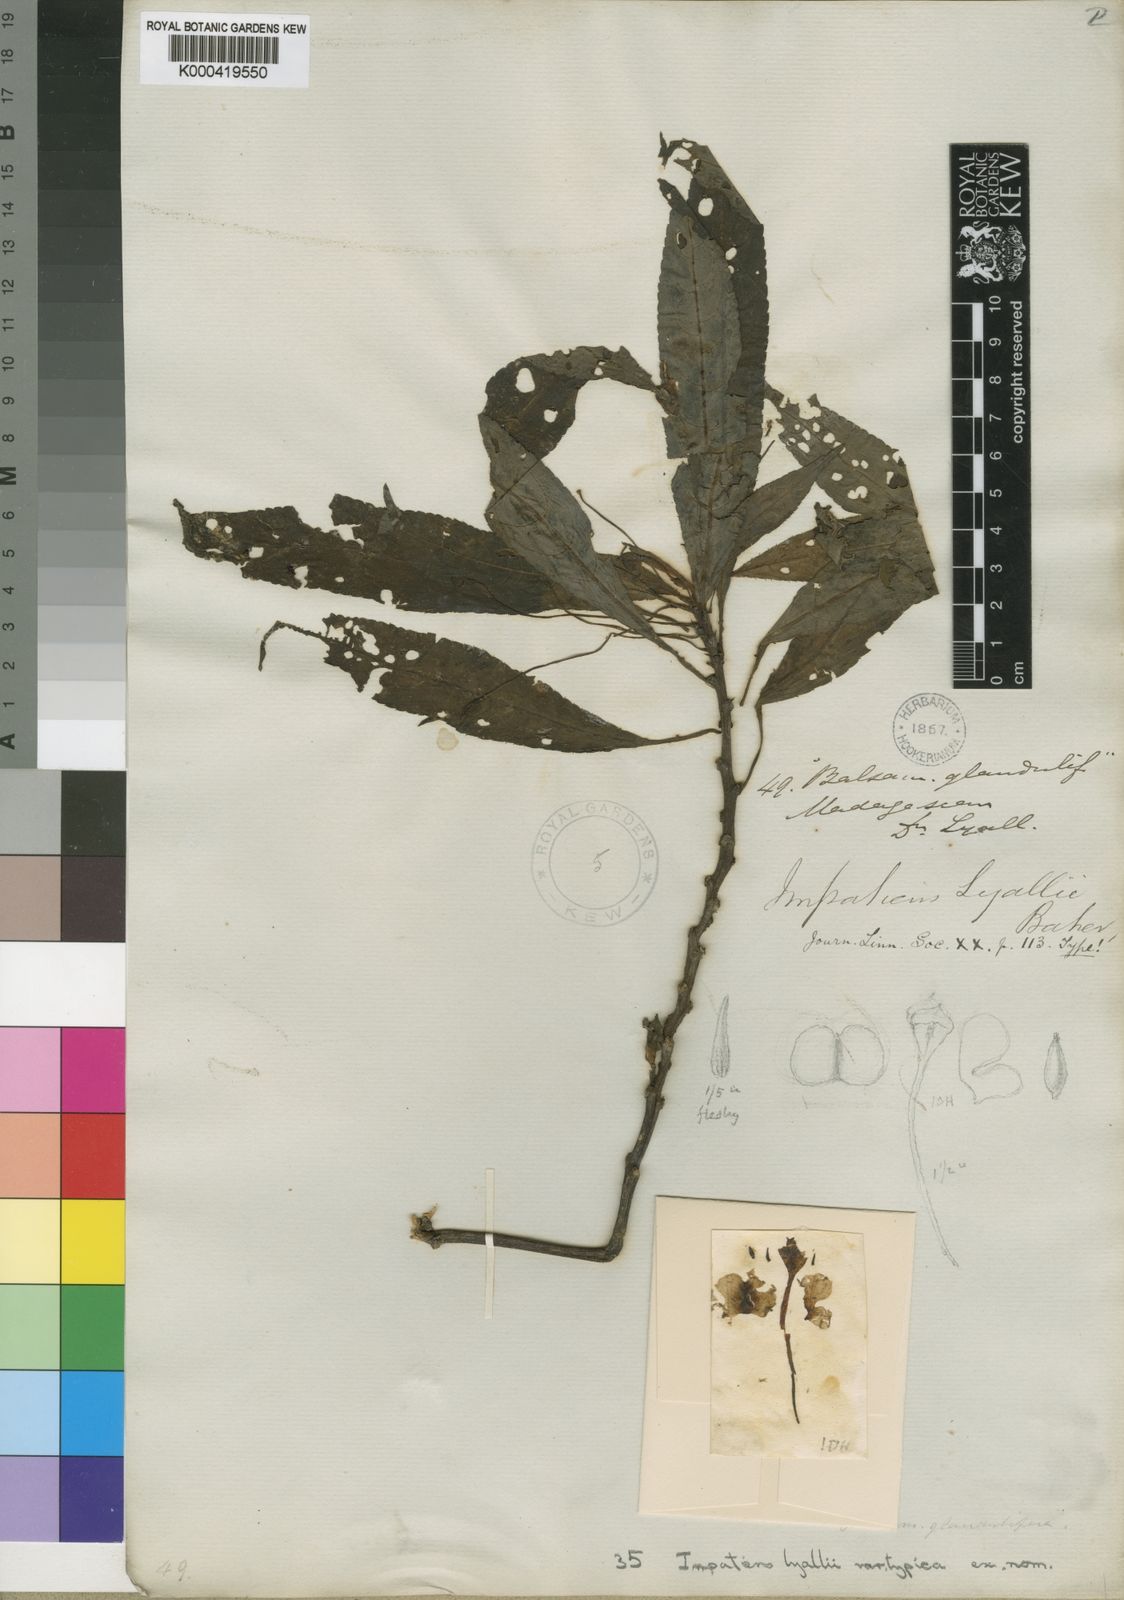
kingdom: Plantae
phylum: Tracheophyta
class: Magnoliopsida
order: Ericales
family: Balsaminaceae
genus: Impatiens
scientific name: Impatiens lyallii
